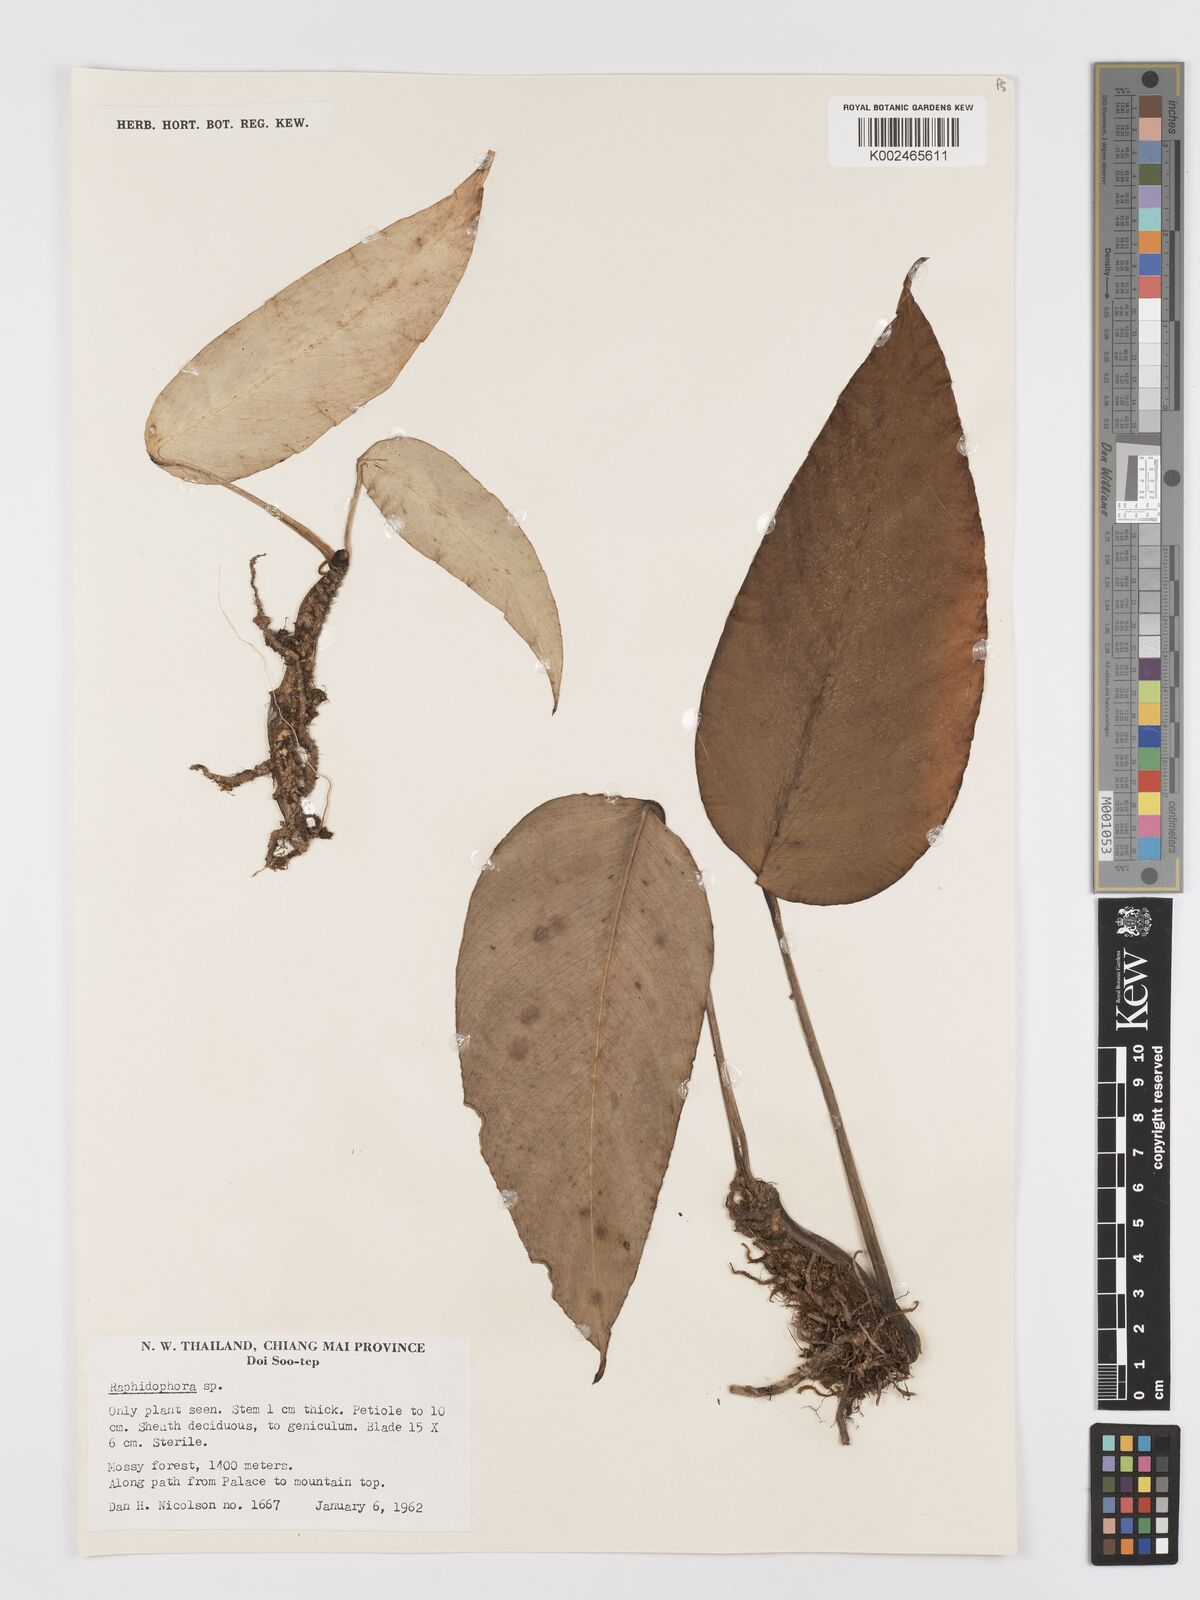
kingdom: Plantae
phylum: Tracheophyta
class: Liliopsida
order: Alismatales
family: Araceae
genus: Rhaphidophora
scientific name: Rhaphidophora megaphylla
